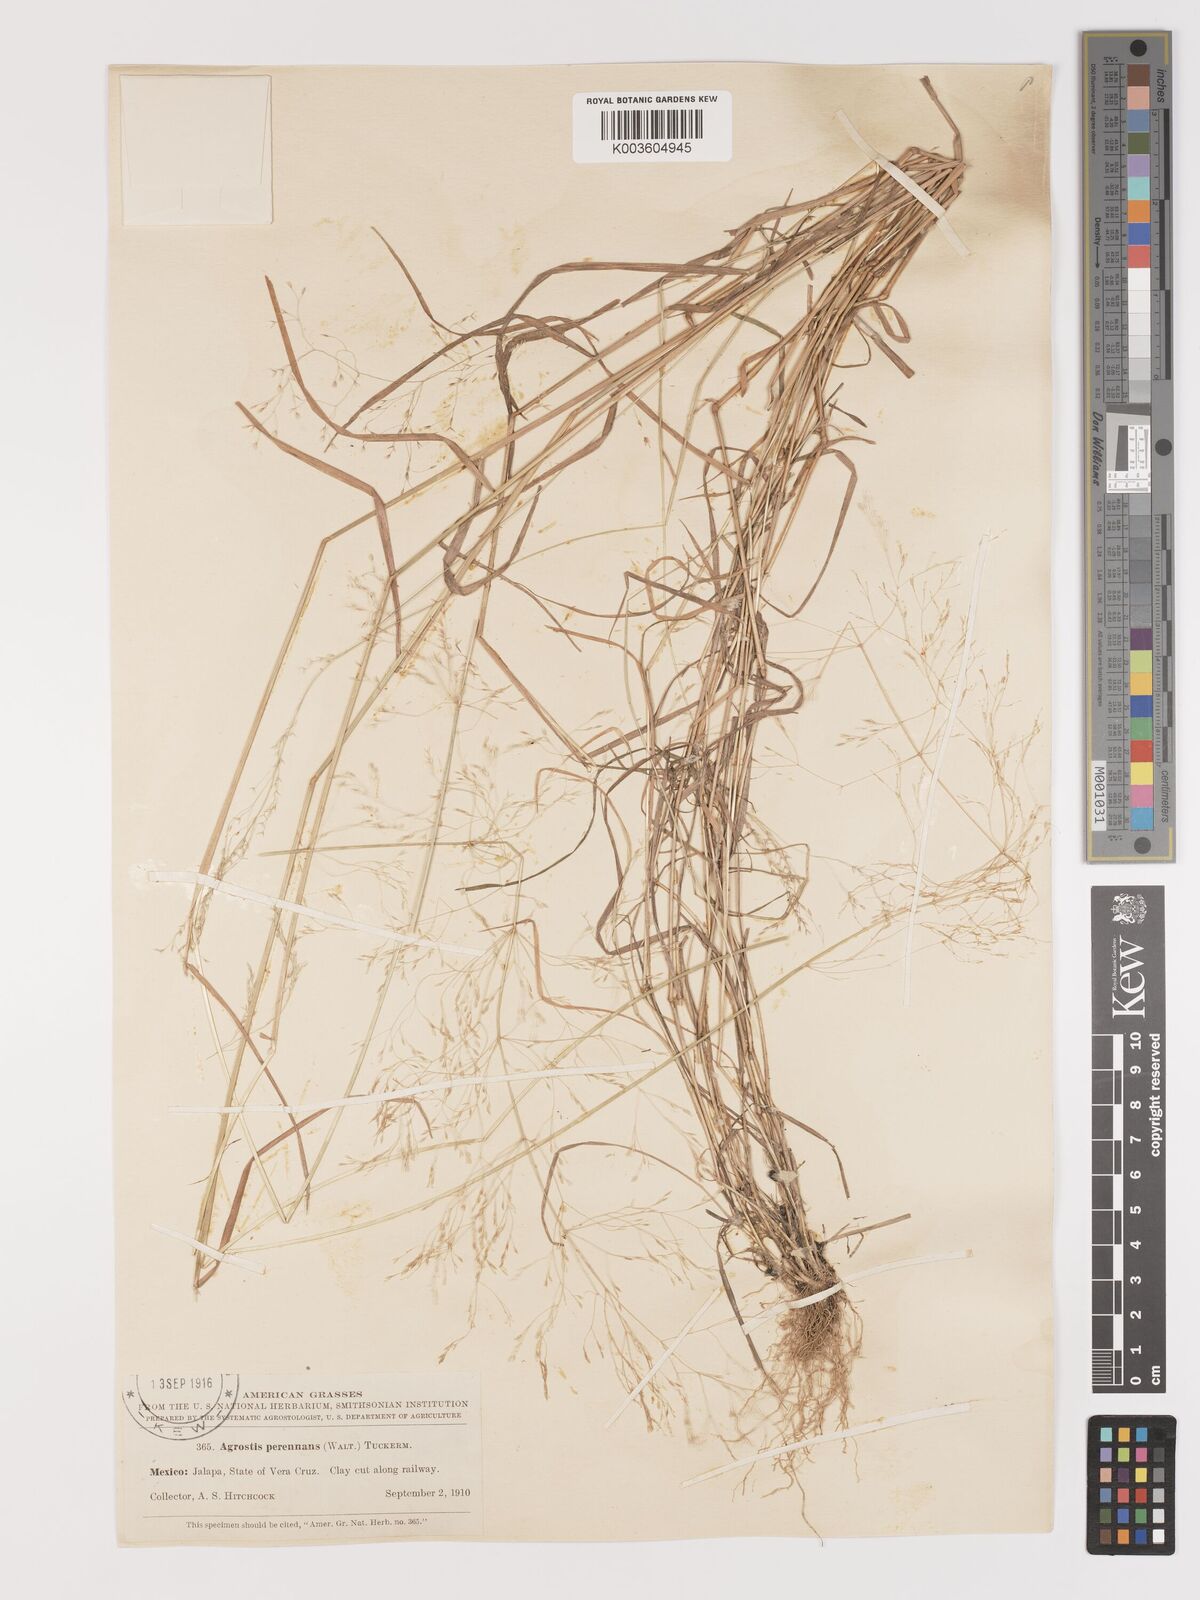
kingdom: Plantae
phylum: Tracheophyta
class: Liliopsida
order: Poales
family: Poaceae
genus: Agrostis
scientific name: Agrostis perennans
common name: Autumn bent
